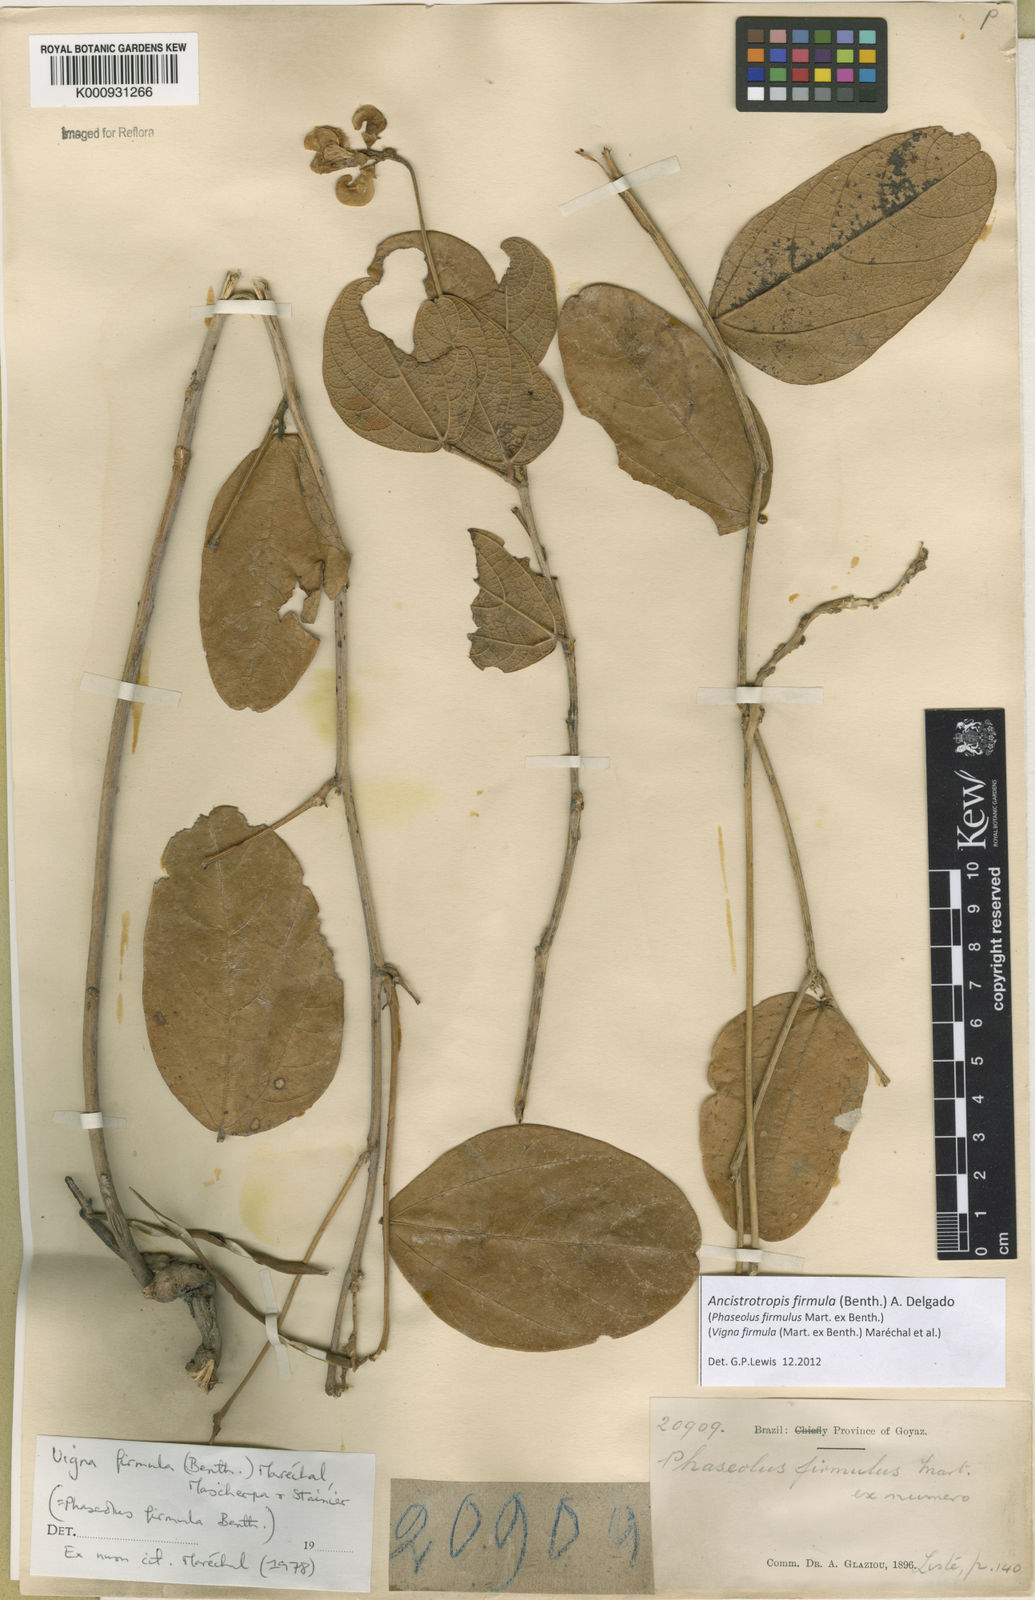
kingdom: Plantae
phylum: Tracheophyta
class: Magnoliopsida
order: Fabales
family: Fabaceae
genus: Ancistrotropis
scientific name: Ancistrotropis firmula
